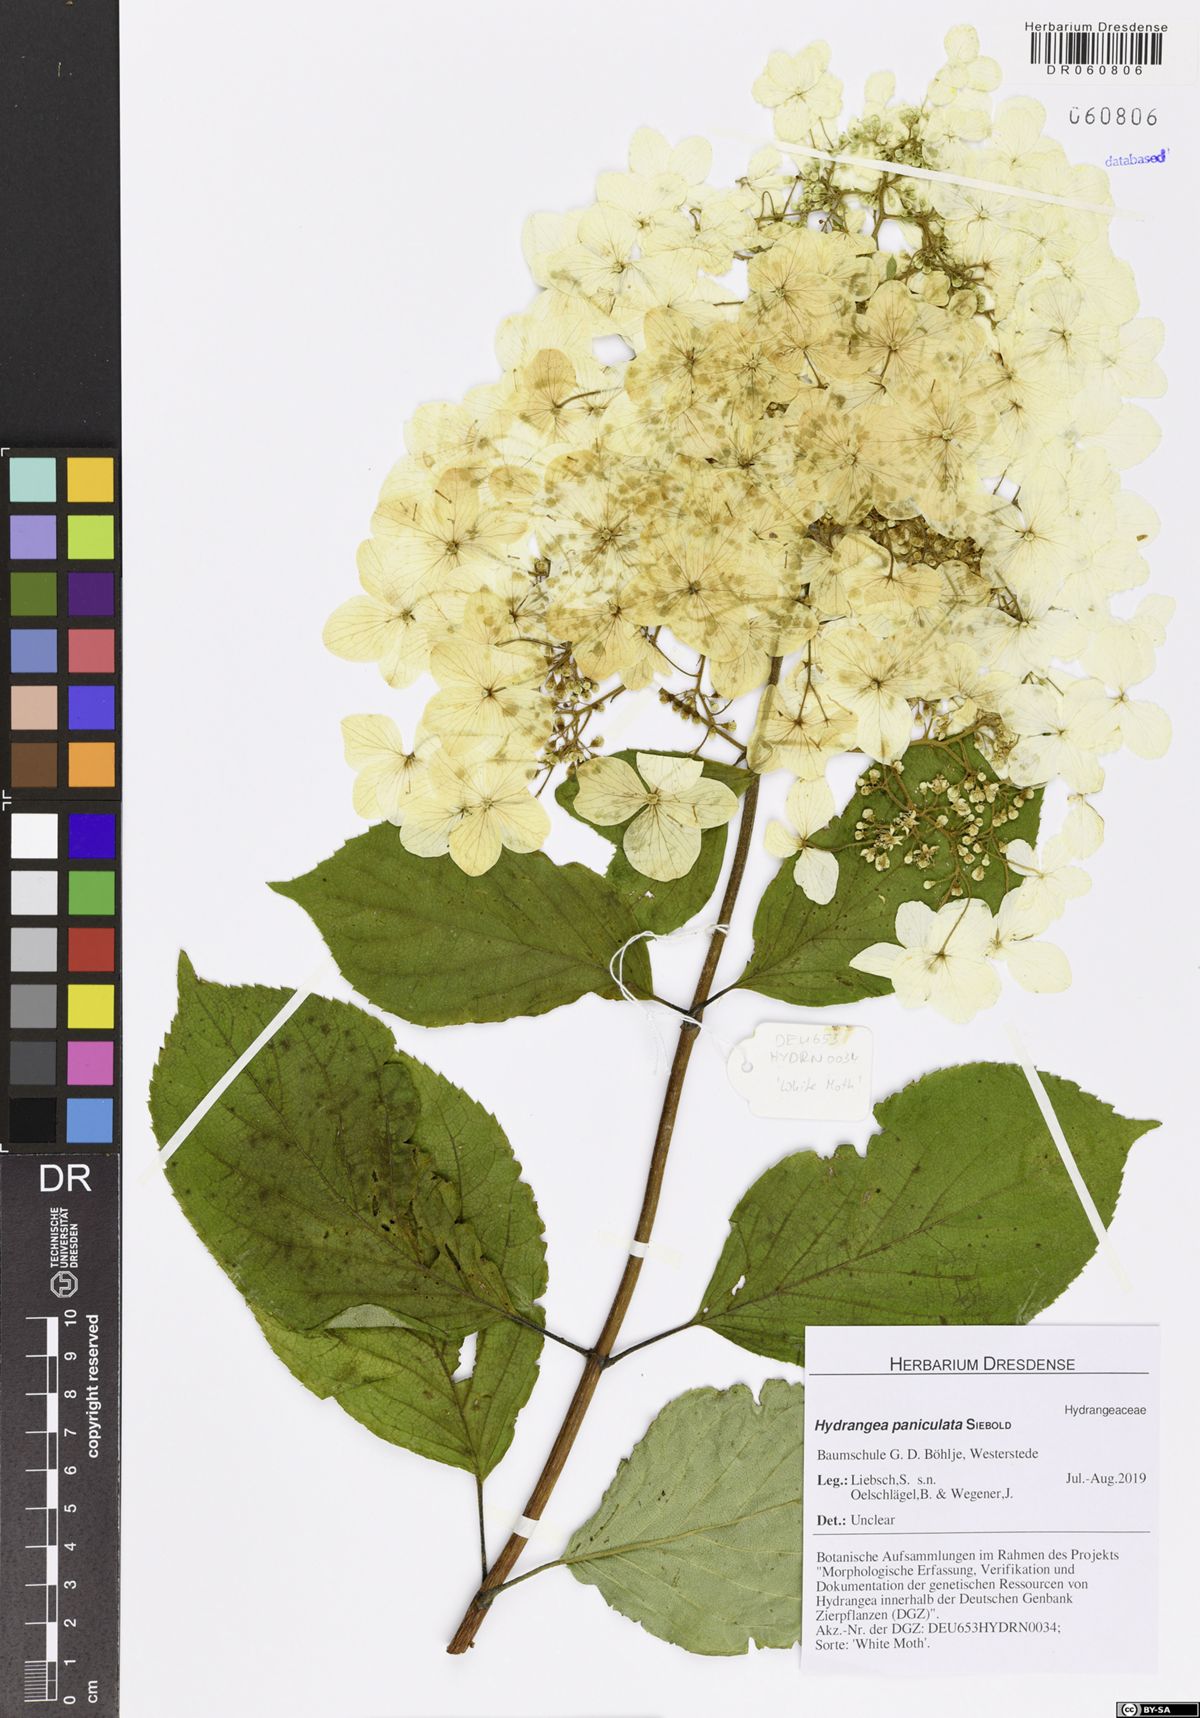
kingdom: Plantae
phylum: Tracheophyta
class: Magnoliopsida
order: Cornales
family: Hydrangeaceae
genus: Hydrangea
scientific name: Hydrangea paniculata
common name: Panicled hydrangea
